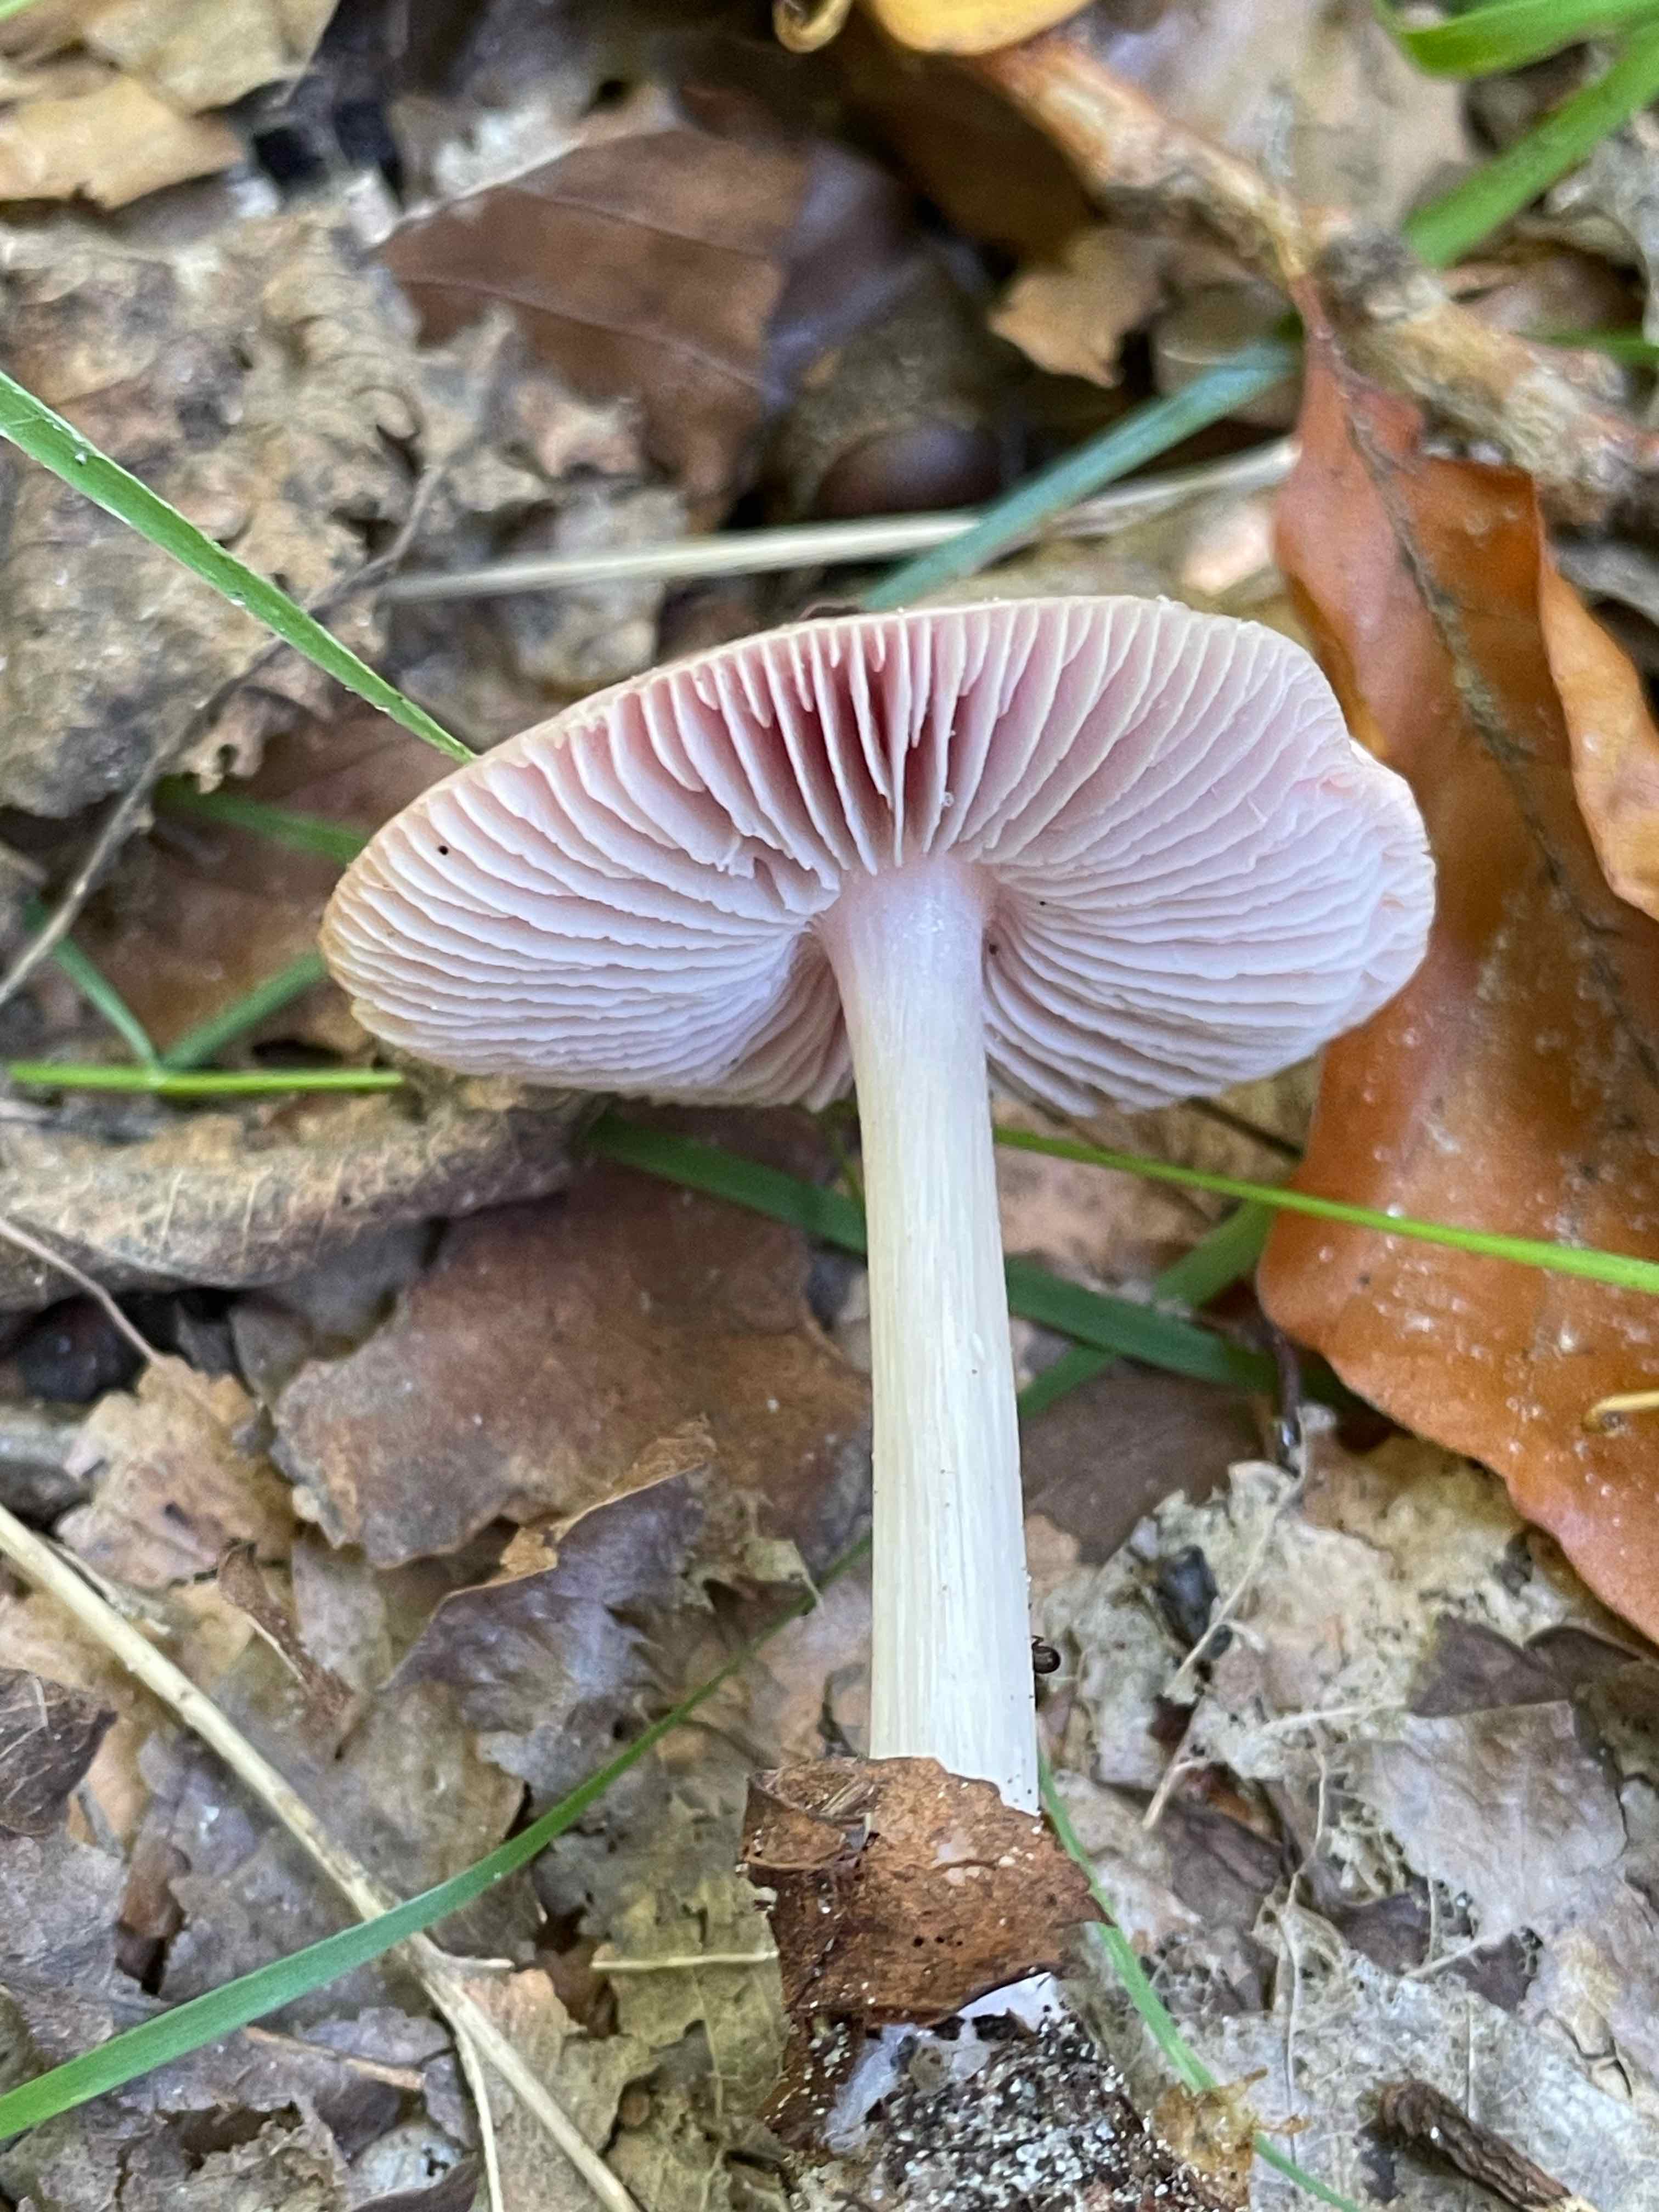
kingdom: Fungi
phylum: Basidiomycota
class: Agaricomycetes
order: Agaricales
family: Mycenaceae
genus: Mycena
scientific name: Mycena rosea
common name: rosa huesvamp
